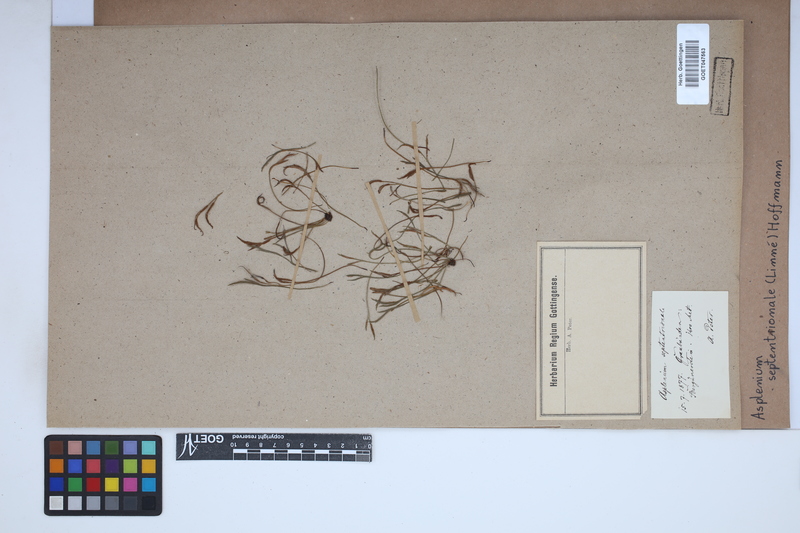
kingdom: Plantae
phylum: Tracheophyta
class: Polypodiopsida
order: Polypodiales
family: Aspleniaceae
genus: Asplenium
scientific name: Asplenium septentrionale
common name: Forked spleenwort
